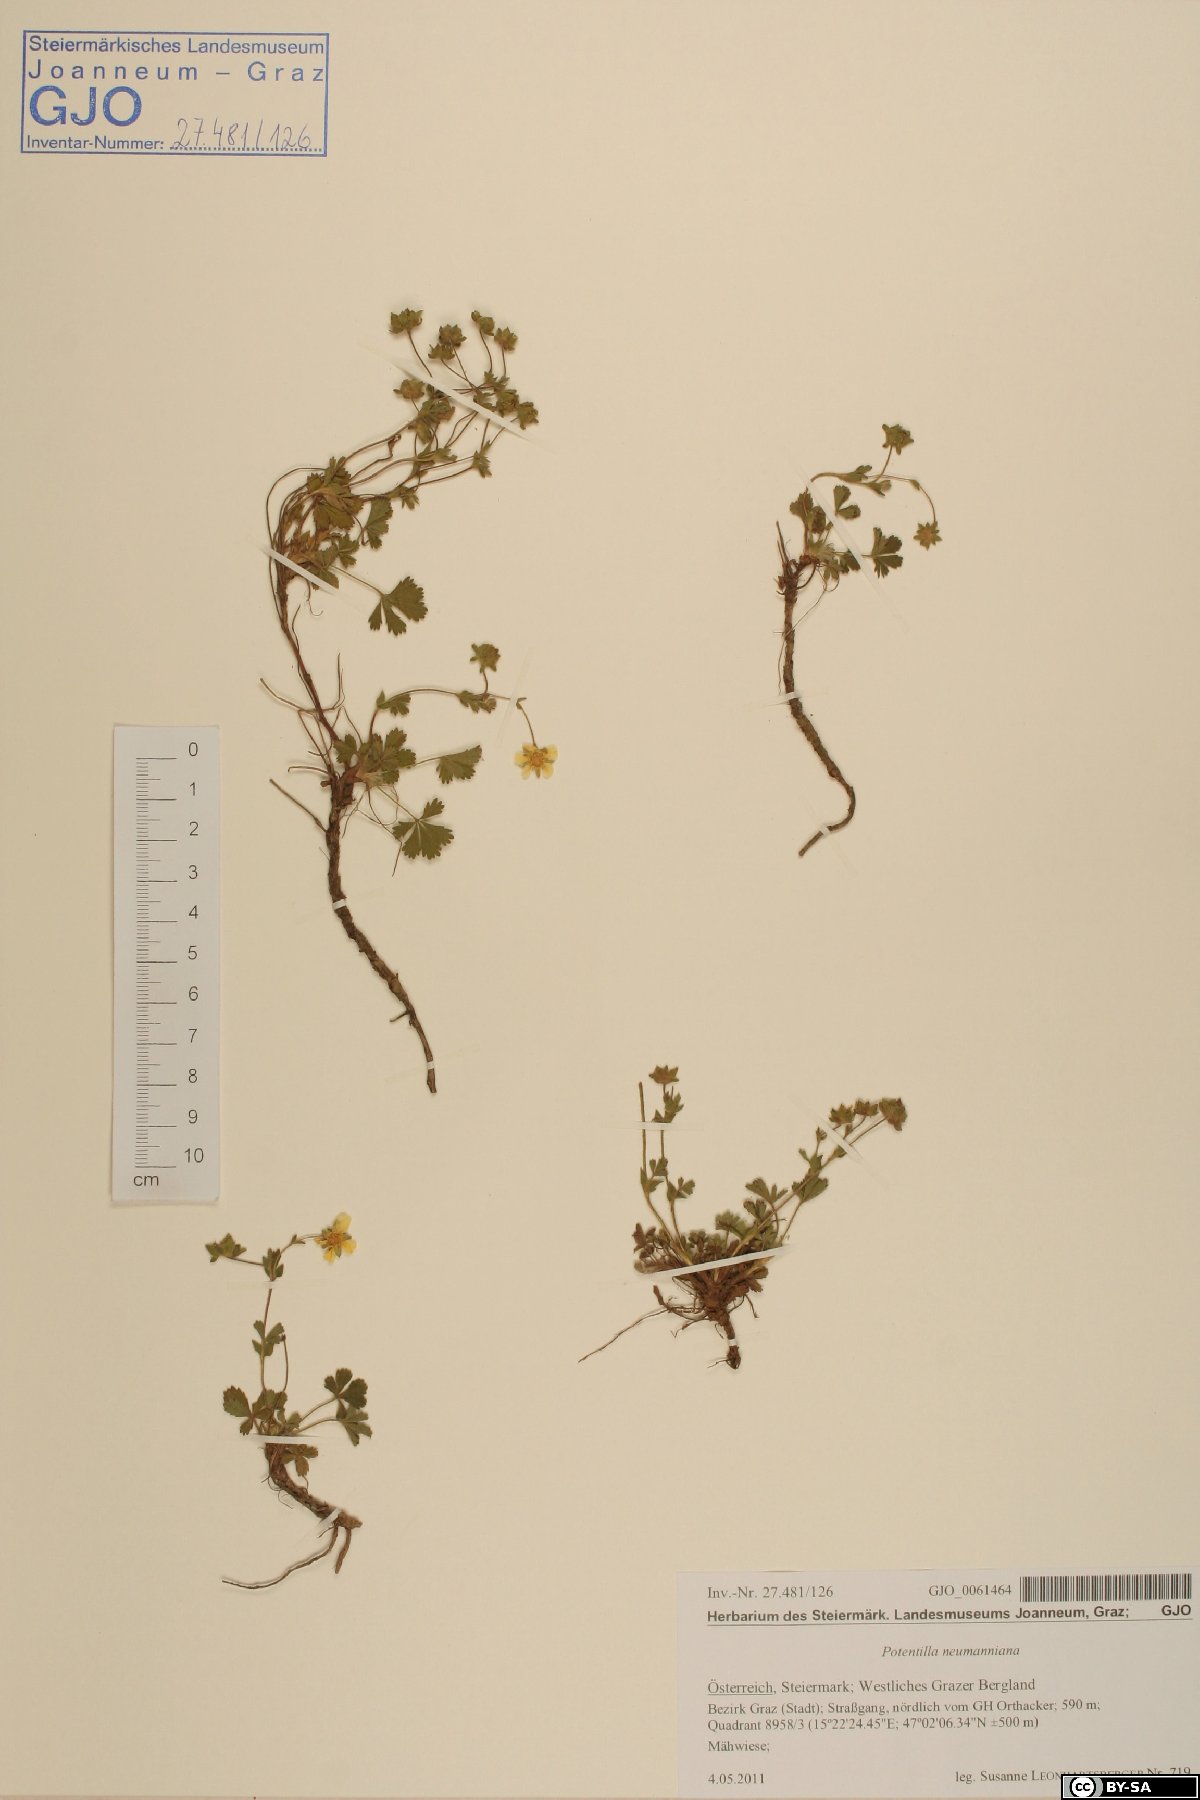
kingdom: Plantae
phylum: Tracheophyta
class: Magnoliopsida
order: Rosales
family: Rosaceae
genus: Potentilla
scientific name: Potentilla verna
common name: Spring cinquefoil
